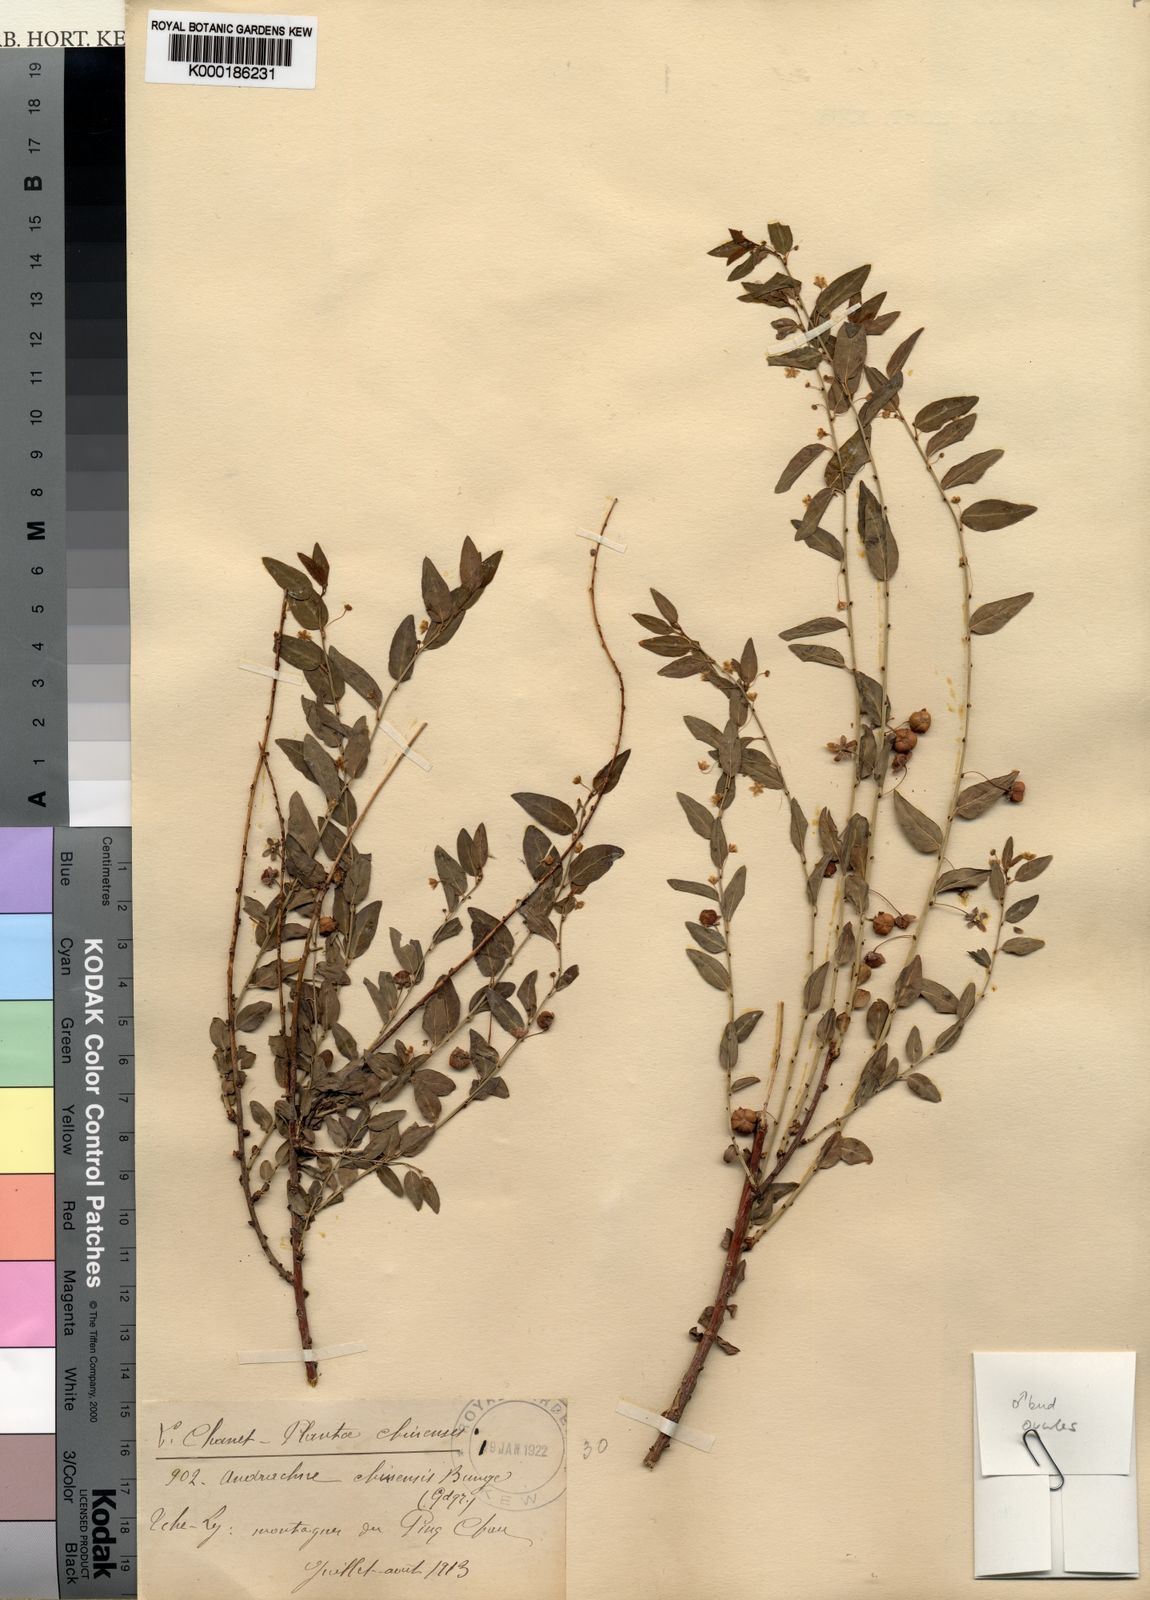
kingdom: Plantae
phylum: Tracheophyta
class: Magnoliopsida
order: Malpighiales
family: Phyllanthaceae
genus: Leptopus
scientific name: Leptopus chinensis
